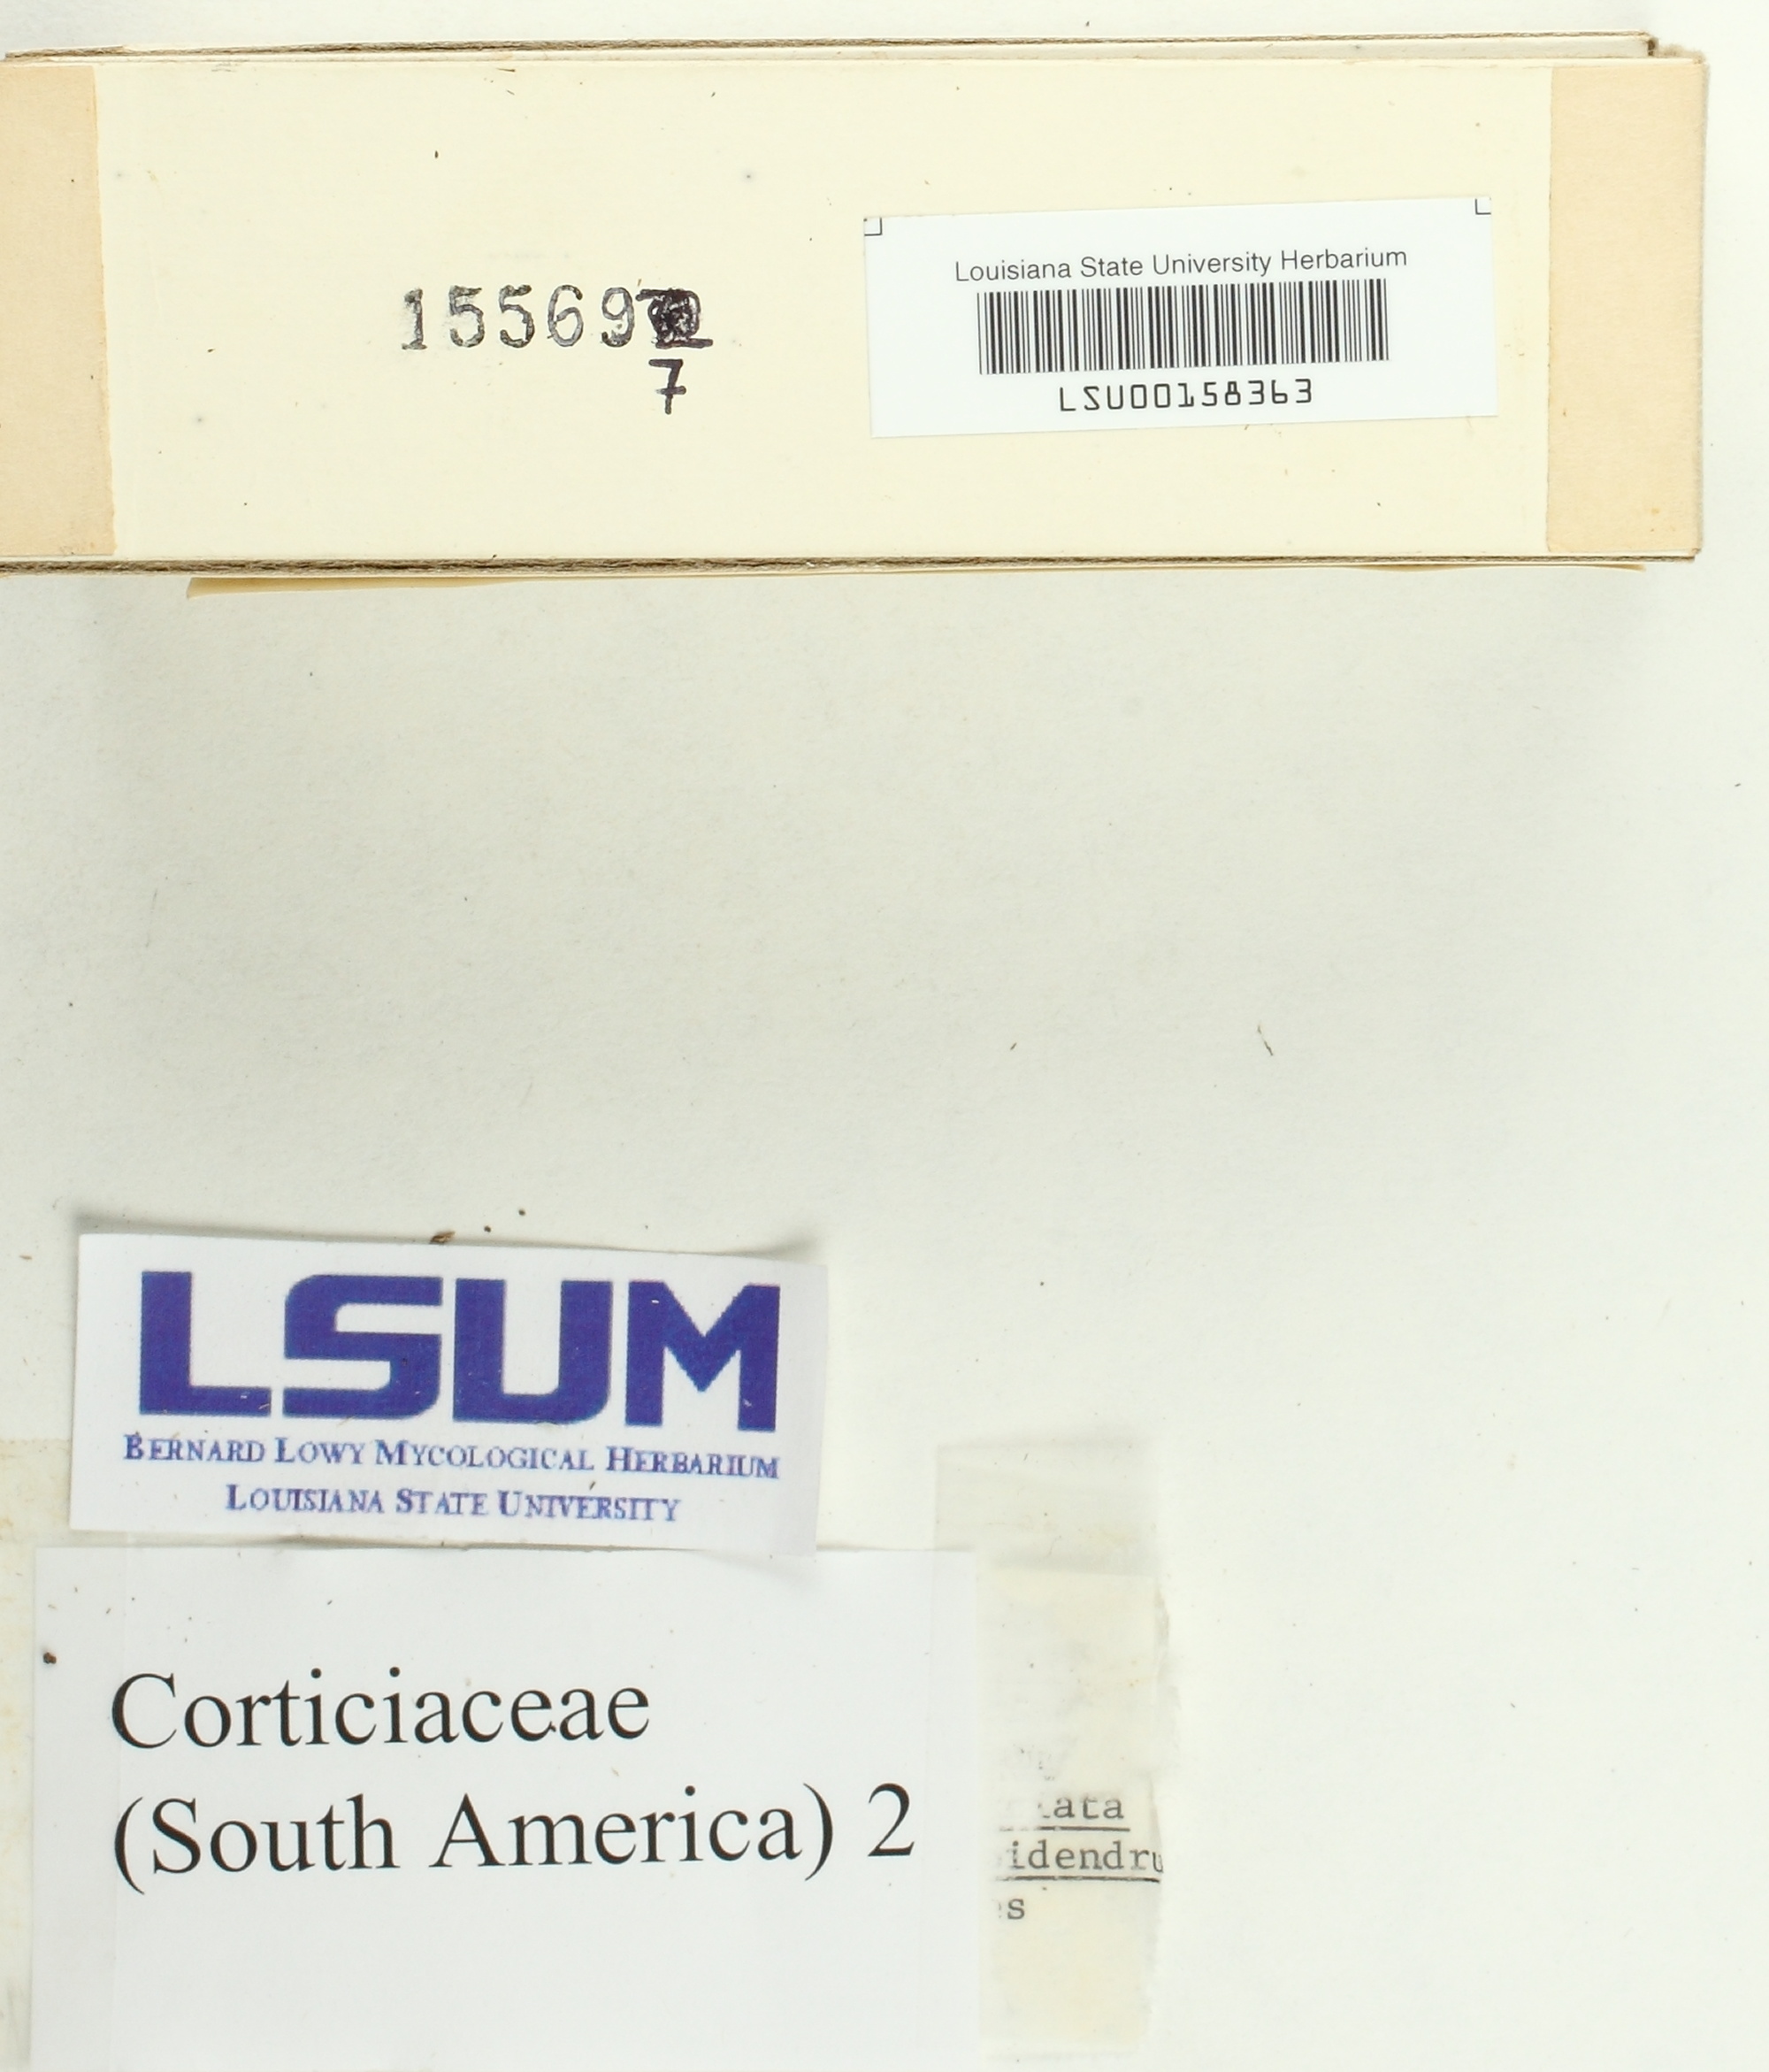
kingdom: Fungi
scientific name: Fungi
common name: Fungi
